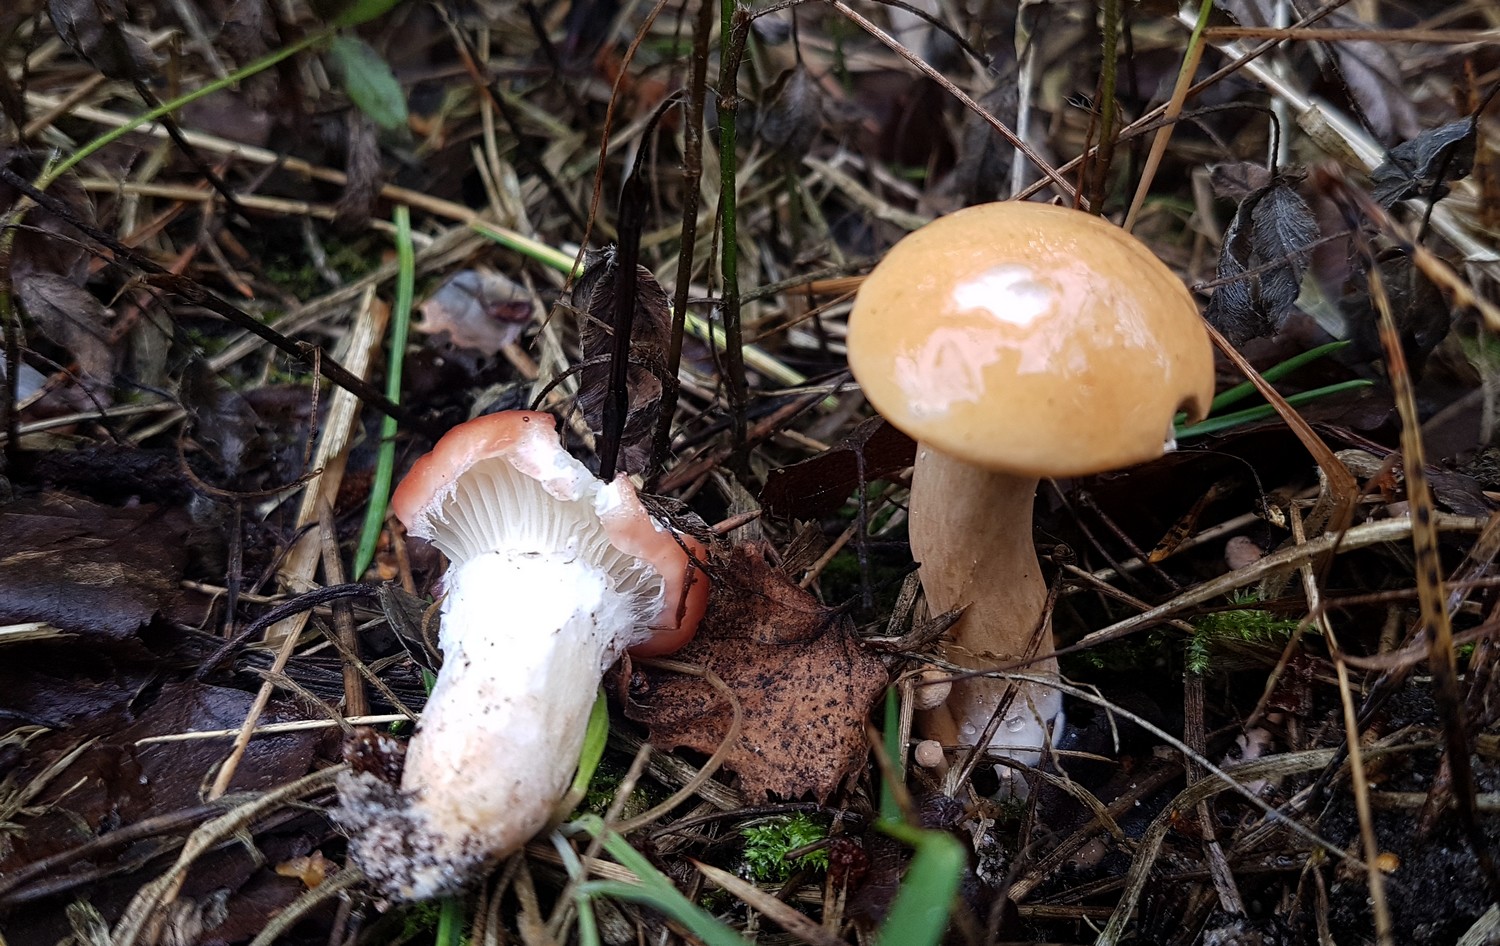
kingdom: Fungi
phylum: Basidiomycota
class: Agaricomycetes
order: Boletales
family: Gomphidiaceae
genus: Gomphidius
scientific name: Gomphidius roseus
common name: rosenrød slimslør
